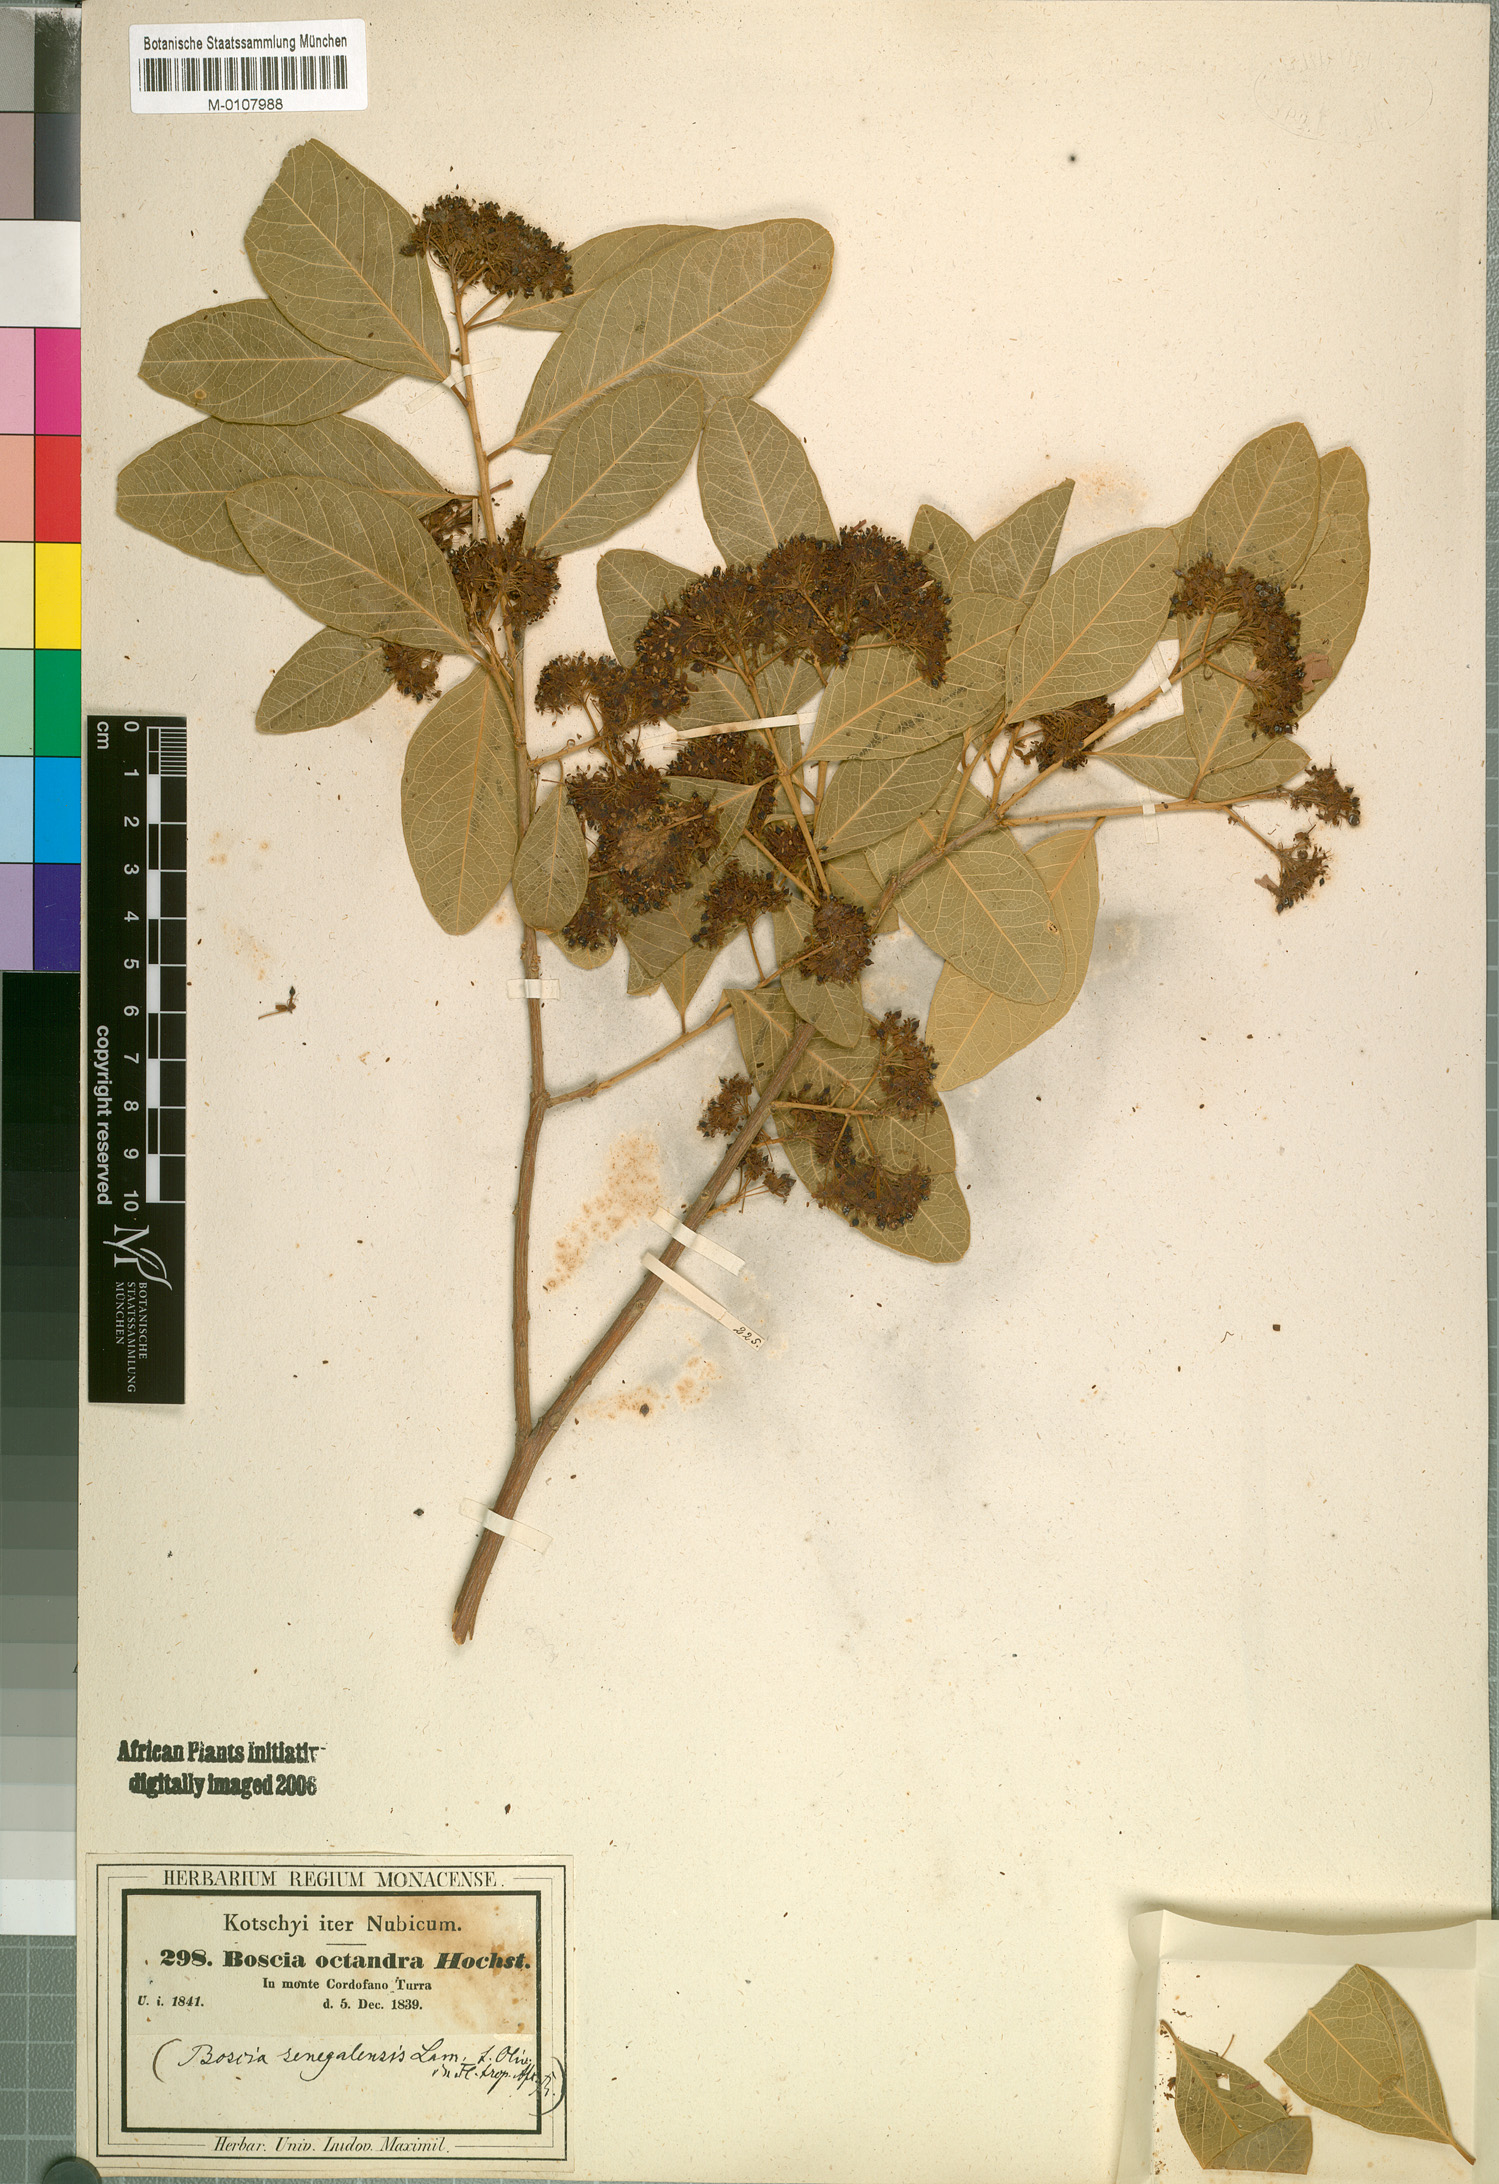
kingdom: Plantae
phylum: Tracheophyta
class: Magnoliopsida
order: Brassicales
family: Capparaceae
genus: Boscia
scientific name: Boscia senegalensis
